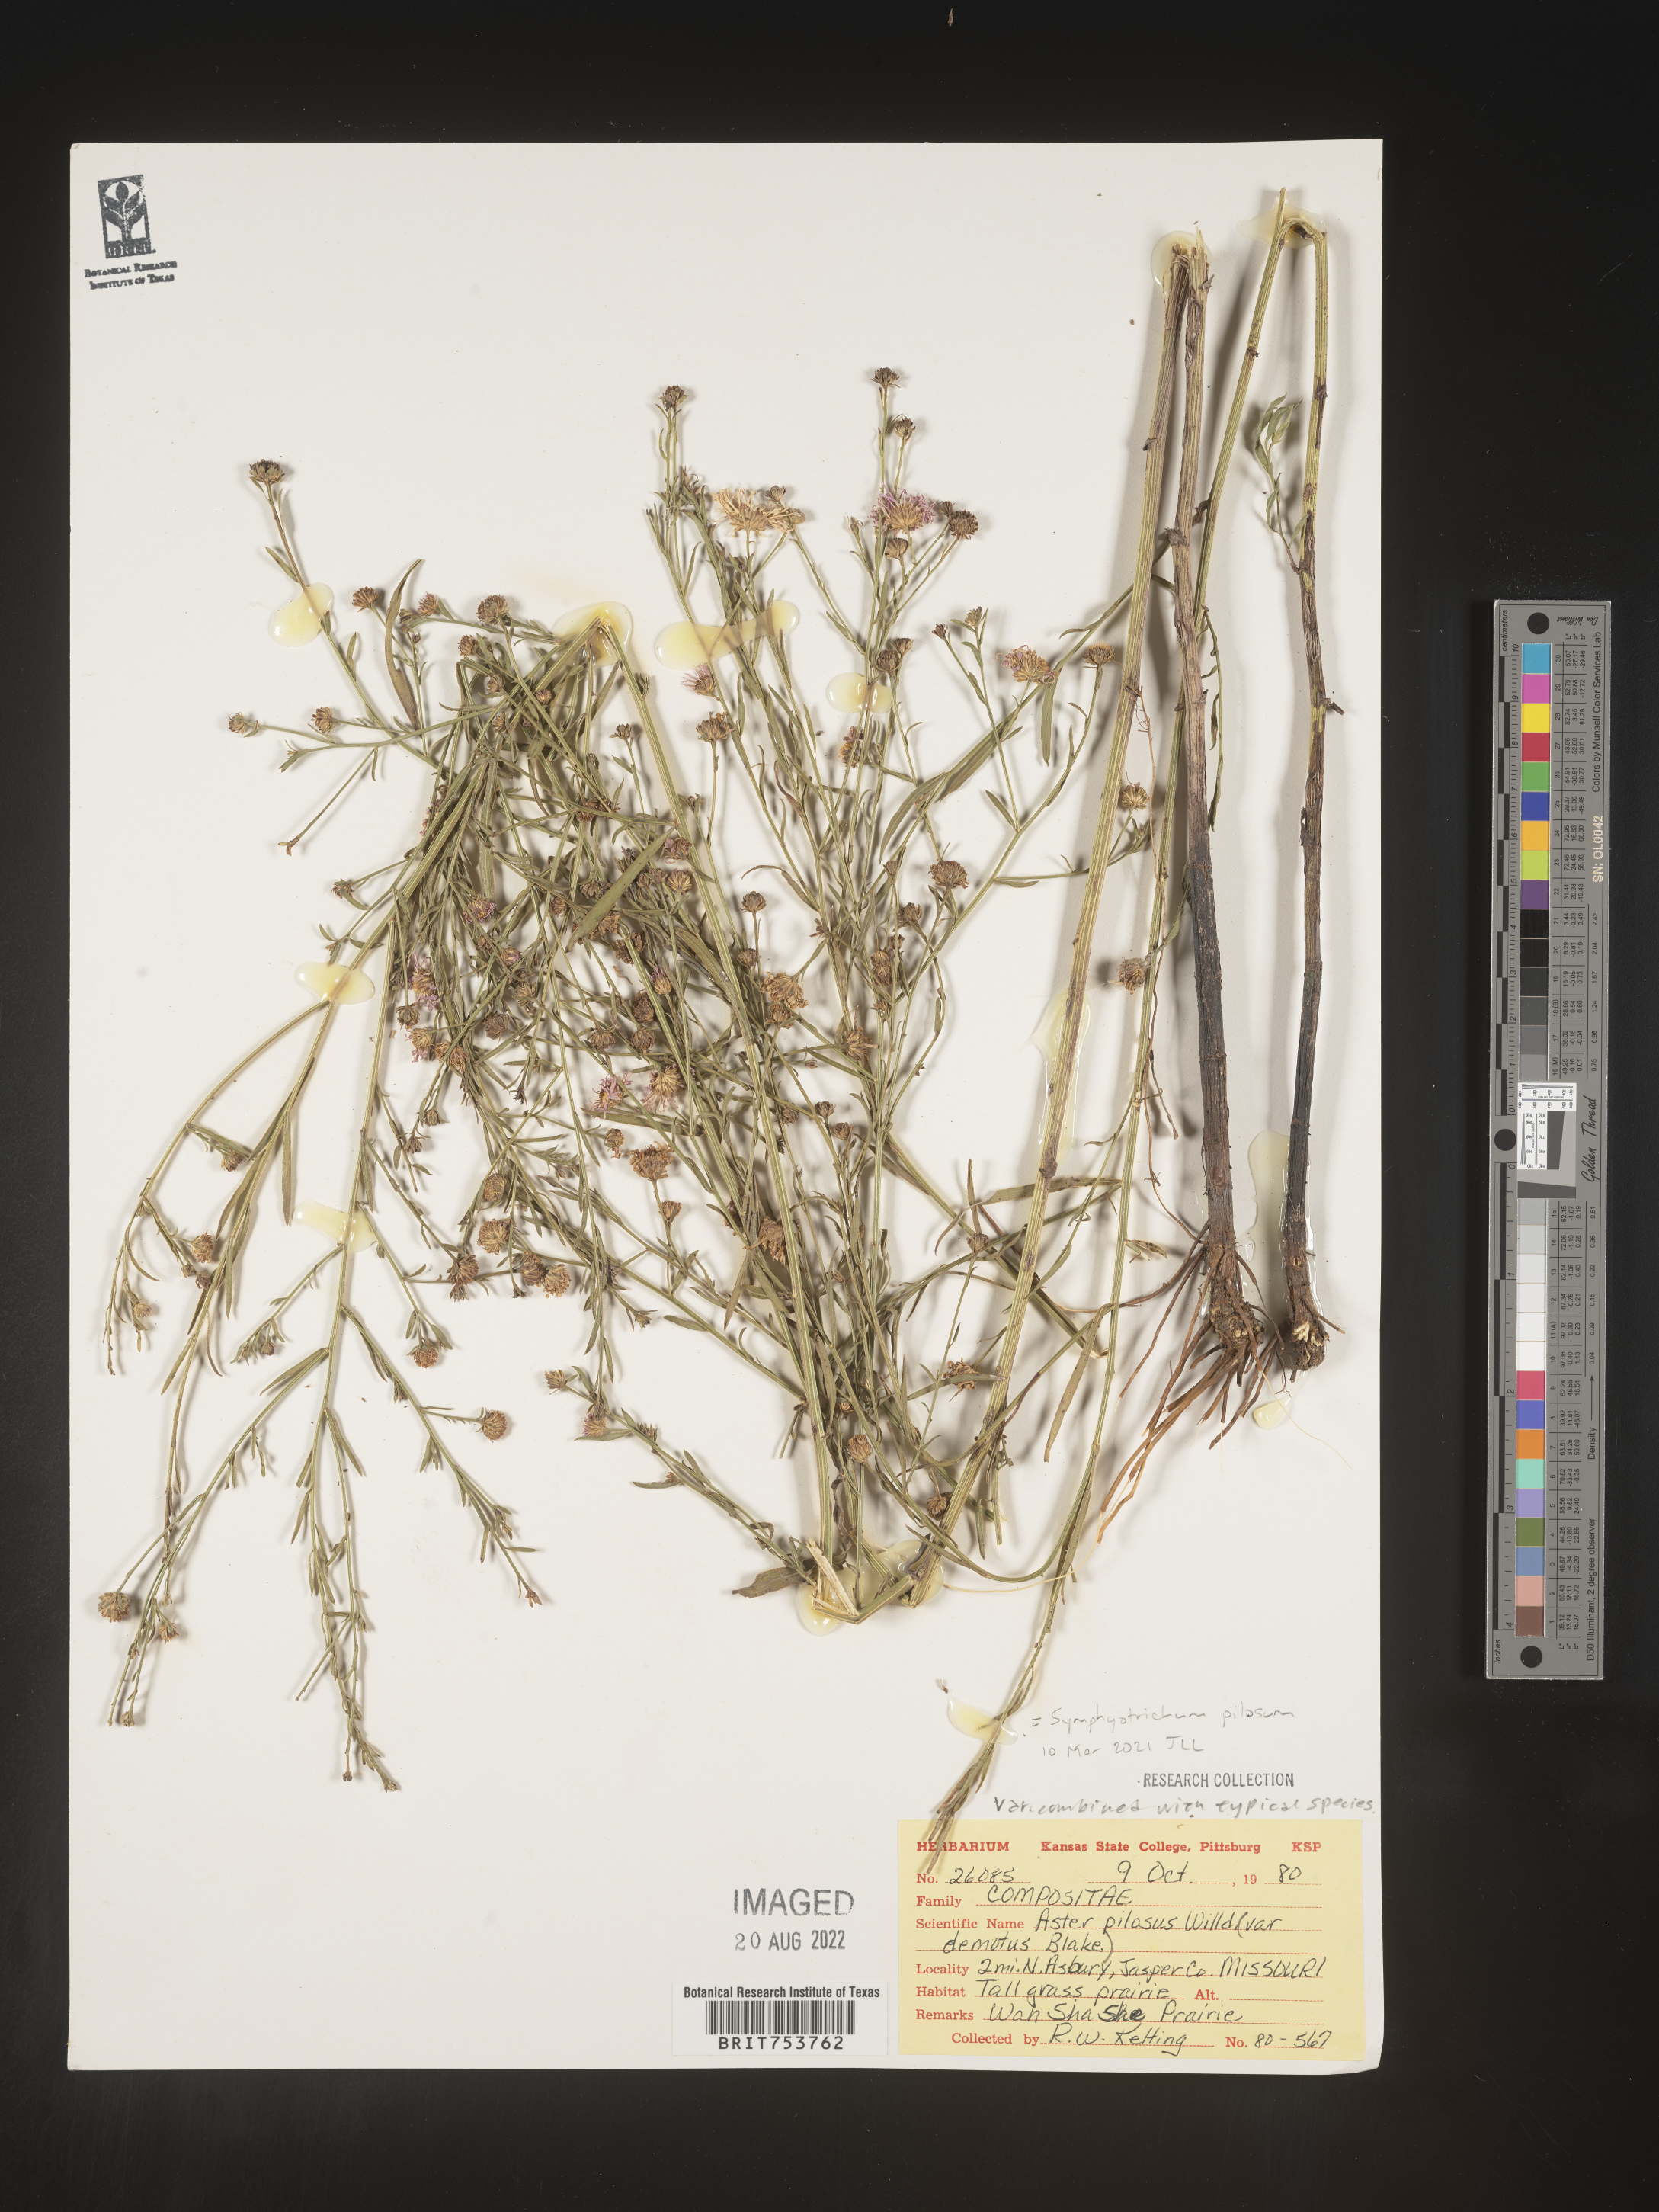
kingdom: Plantae
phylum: Tracheophyta
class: Magnoliopsida
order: Asterales
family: Asteraceae
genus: Symphyotrichum
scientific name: Symphyotrichum pilosum
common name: Awl aster
